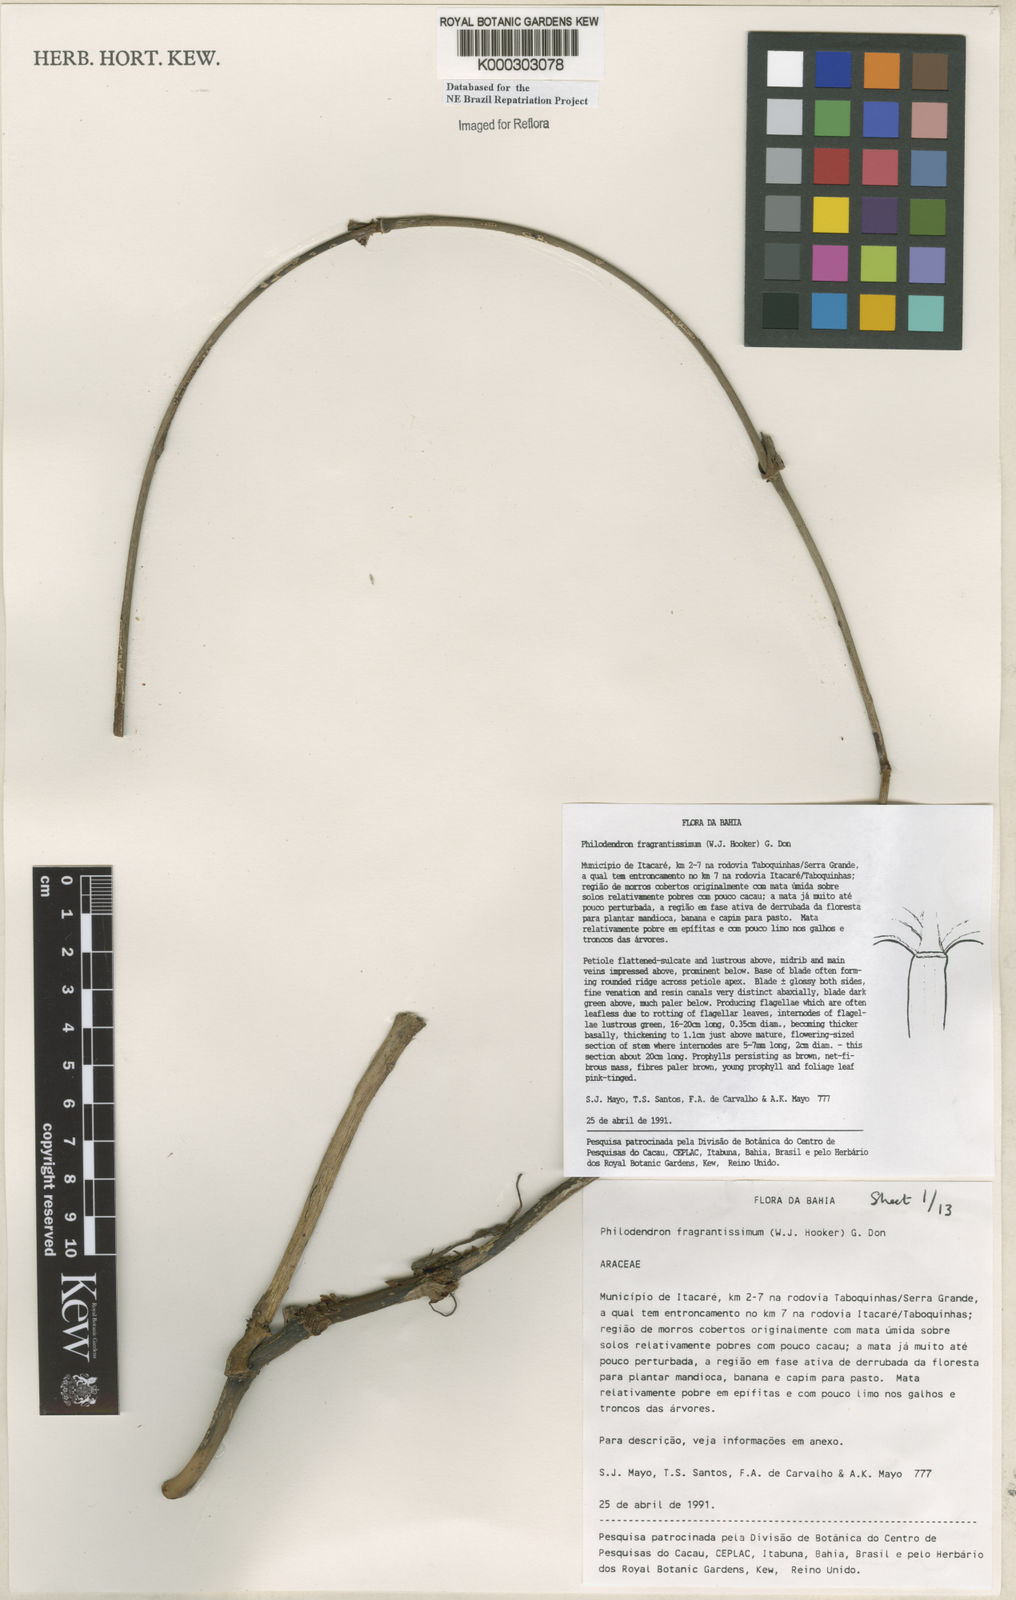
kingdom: Plantae
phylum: Tracheophyta
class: Liliopsida
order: Alismatales
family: Araceae
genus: Philodendron
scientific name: Philodendron fragrantissimum
